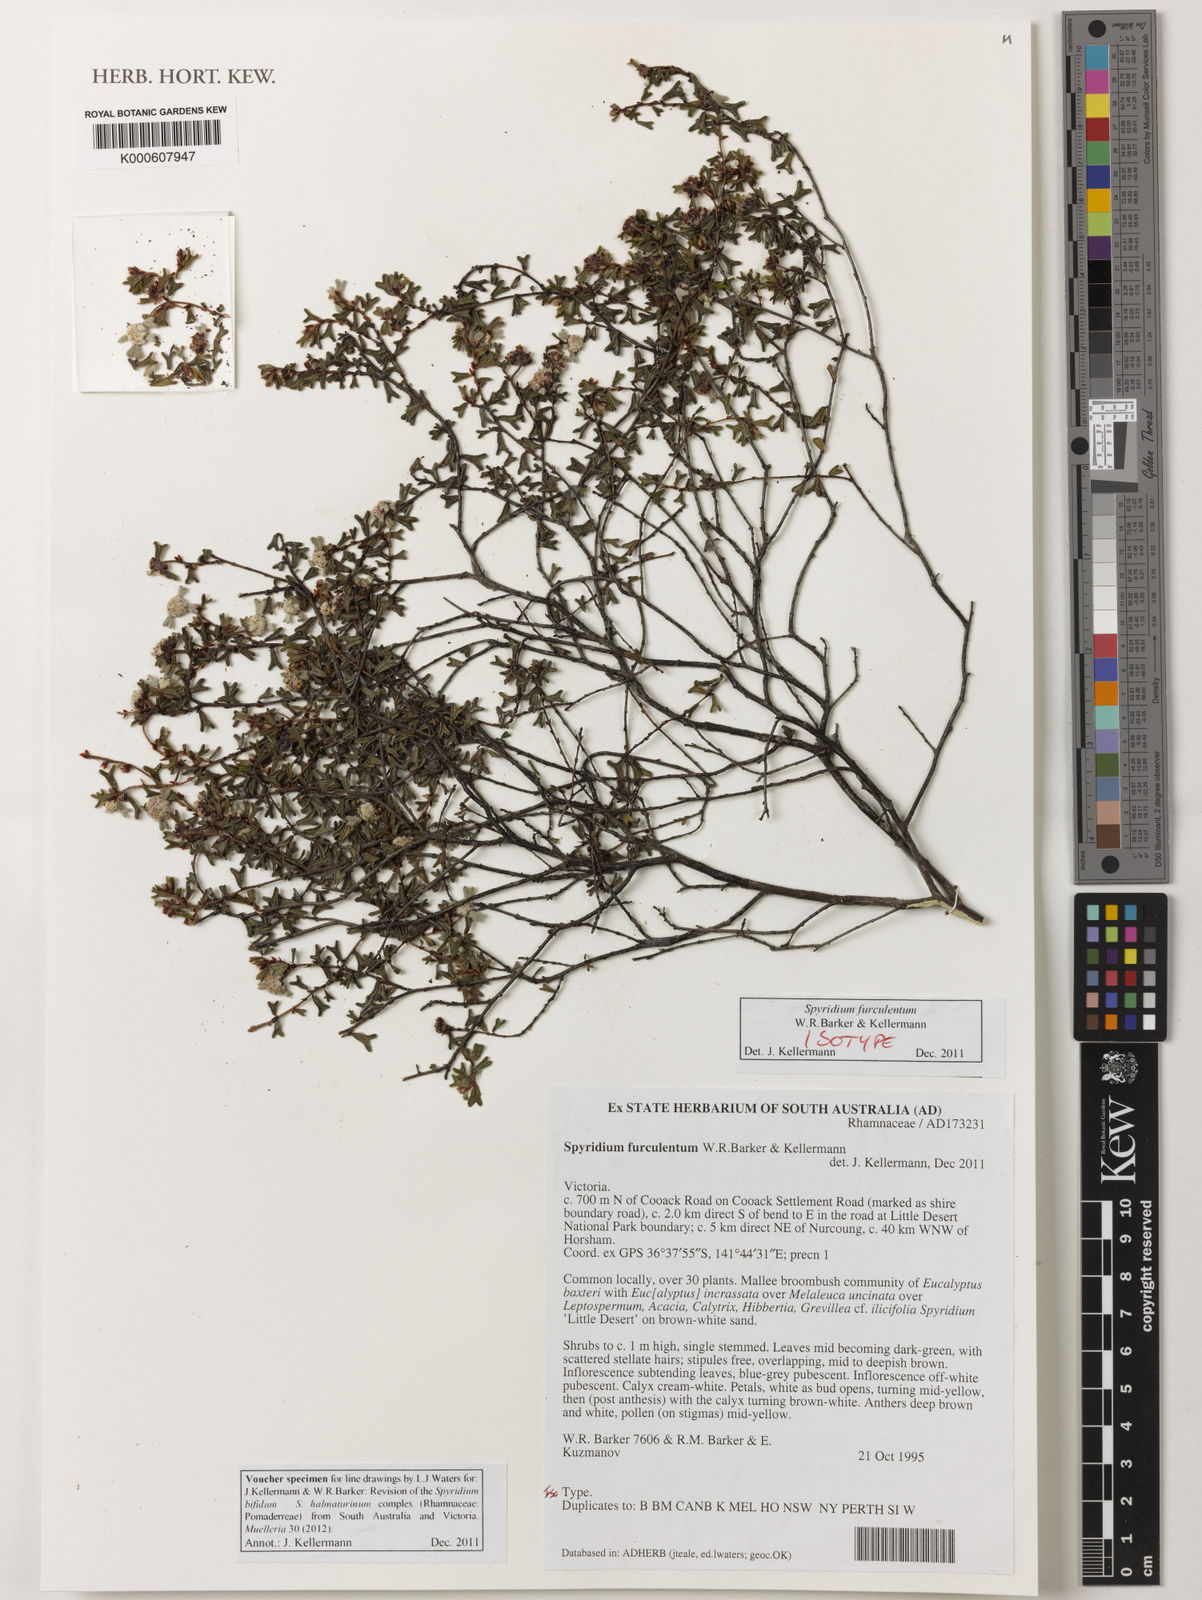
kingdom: Plantae
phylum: Tracheophyta
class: Magnoliopsida
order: Rosales
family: Rhamnaceae
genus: Spyridium
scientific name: Spyridium furculentum
